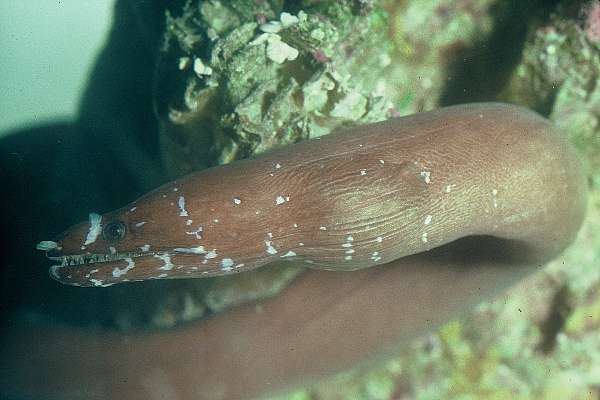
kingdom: Animalia
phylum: Chordata
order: Anguilliformes
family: Muraenidae
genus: Uropterygius
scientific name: Uropterygius kamar
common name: Moon moray
